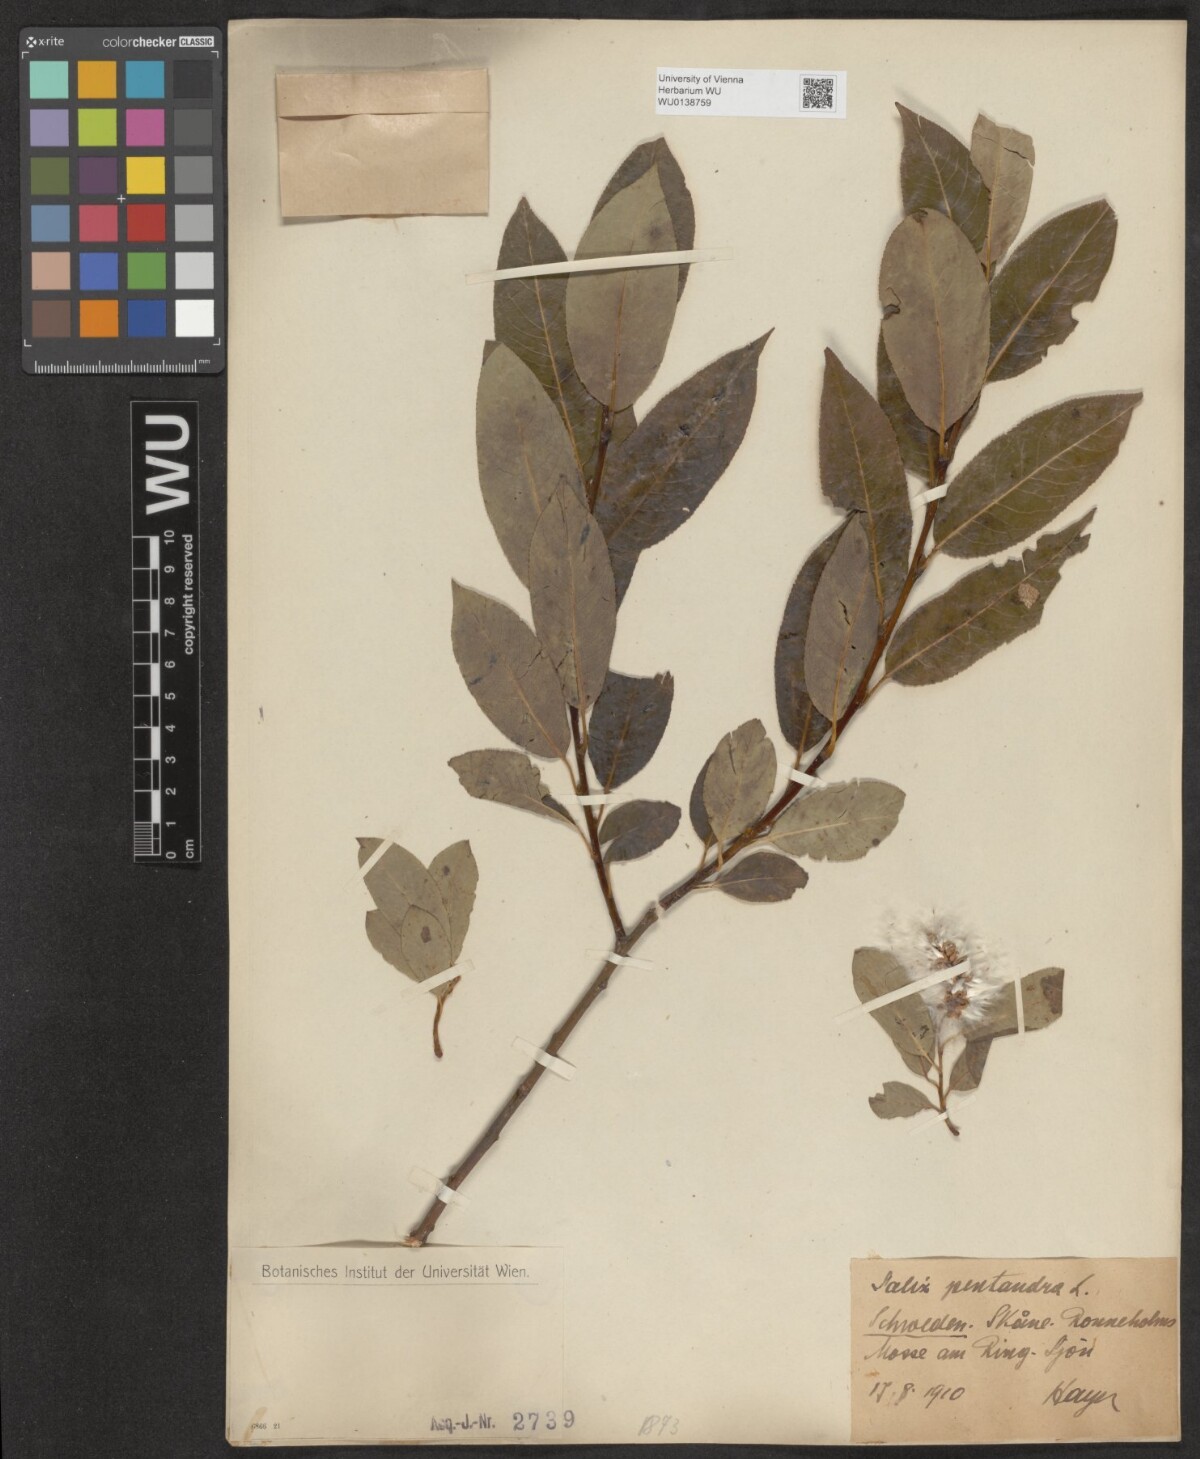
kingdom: Plantae
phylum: Tracheophyta
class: Magnoliopsida
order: Malpighiales
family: Salicaceae
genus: Salix
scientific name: Salix pentandra
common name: Bay willow
